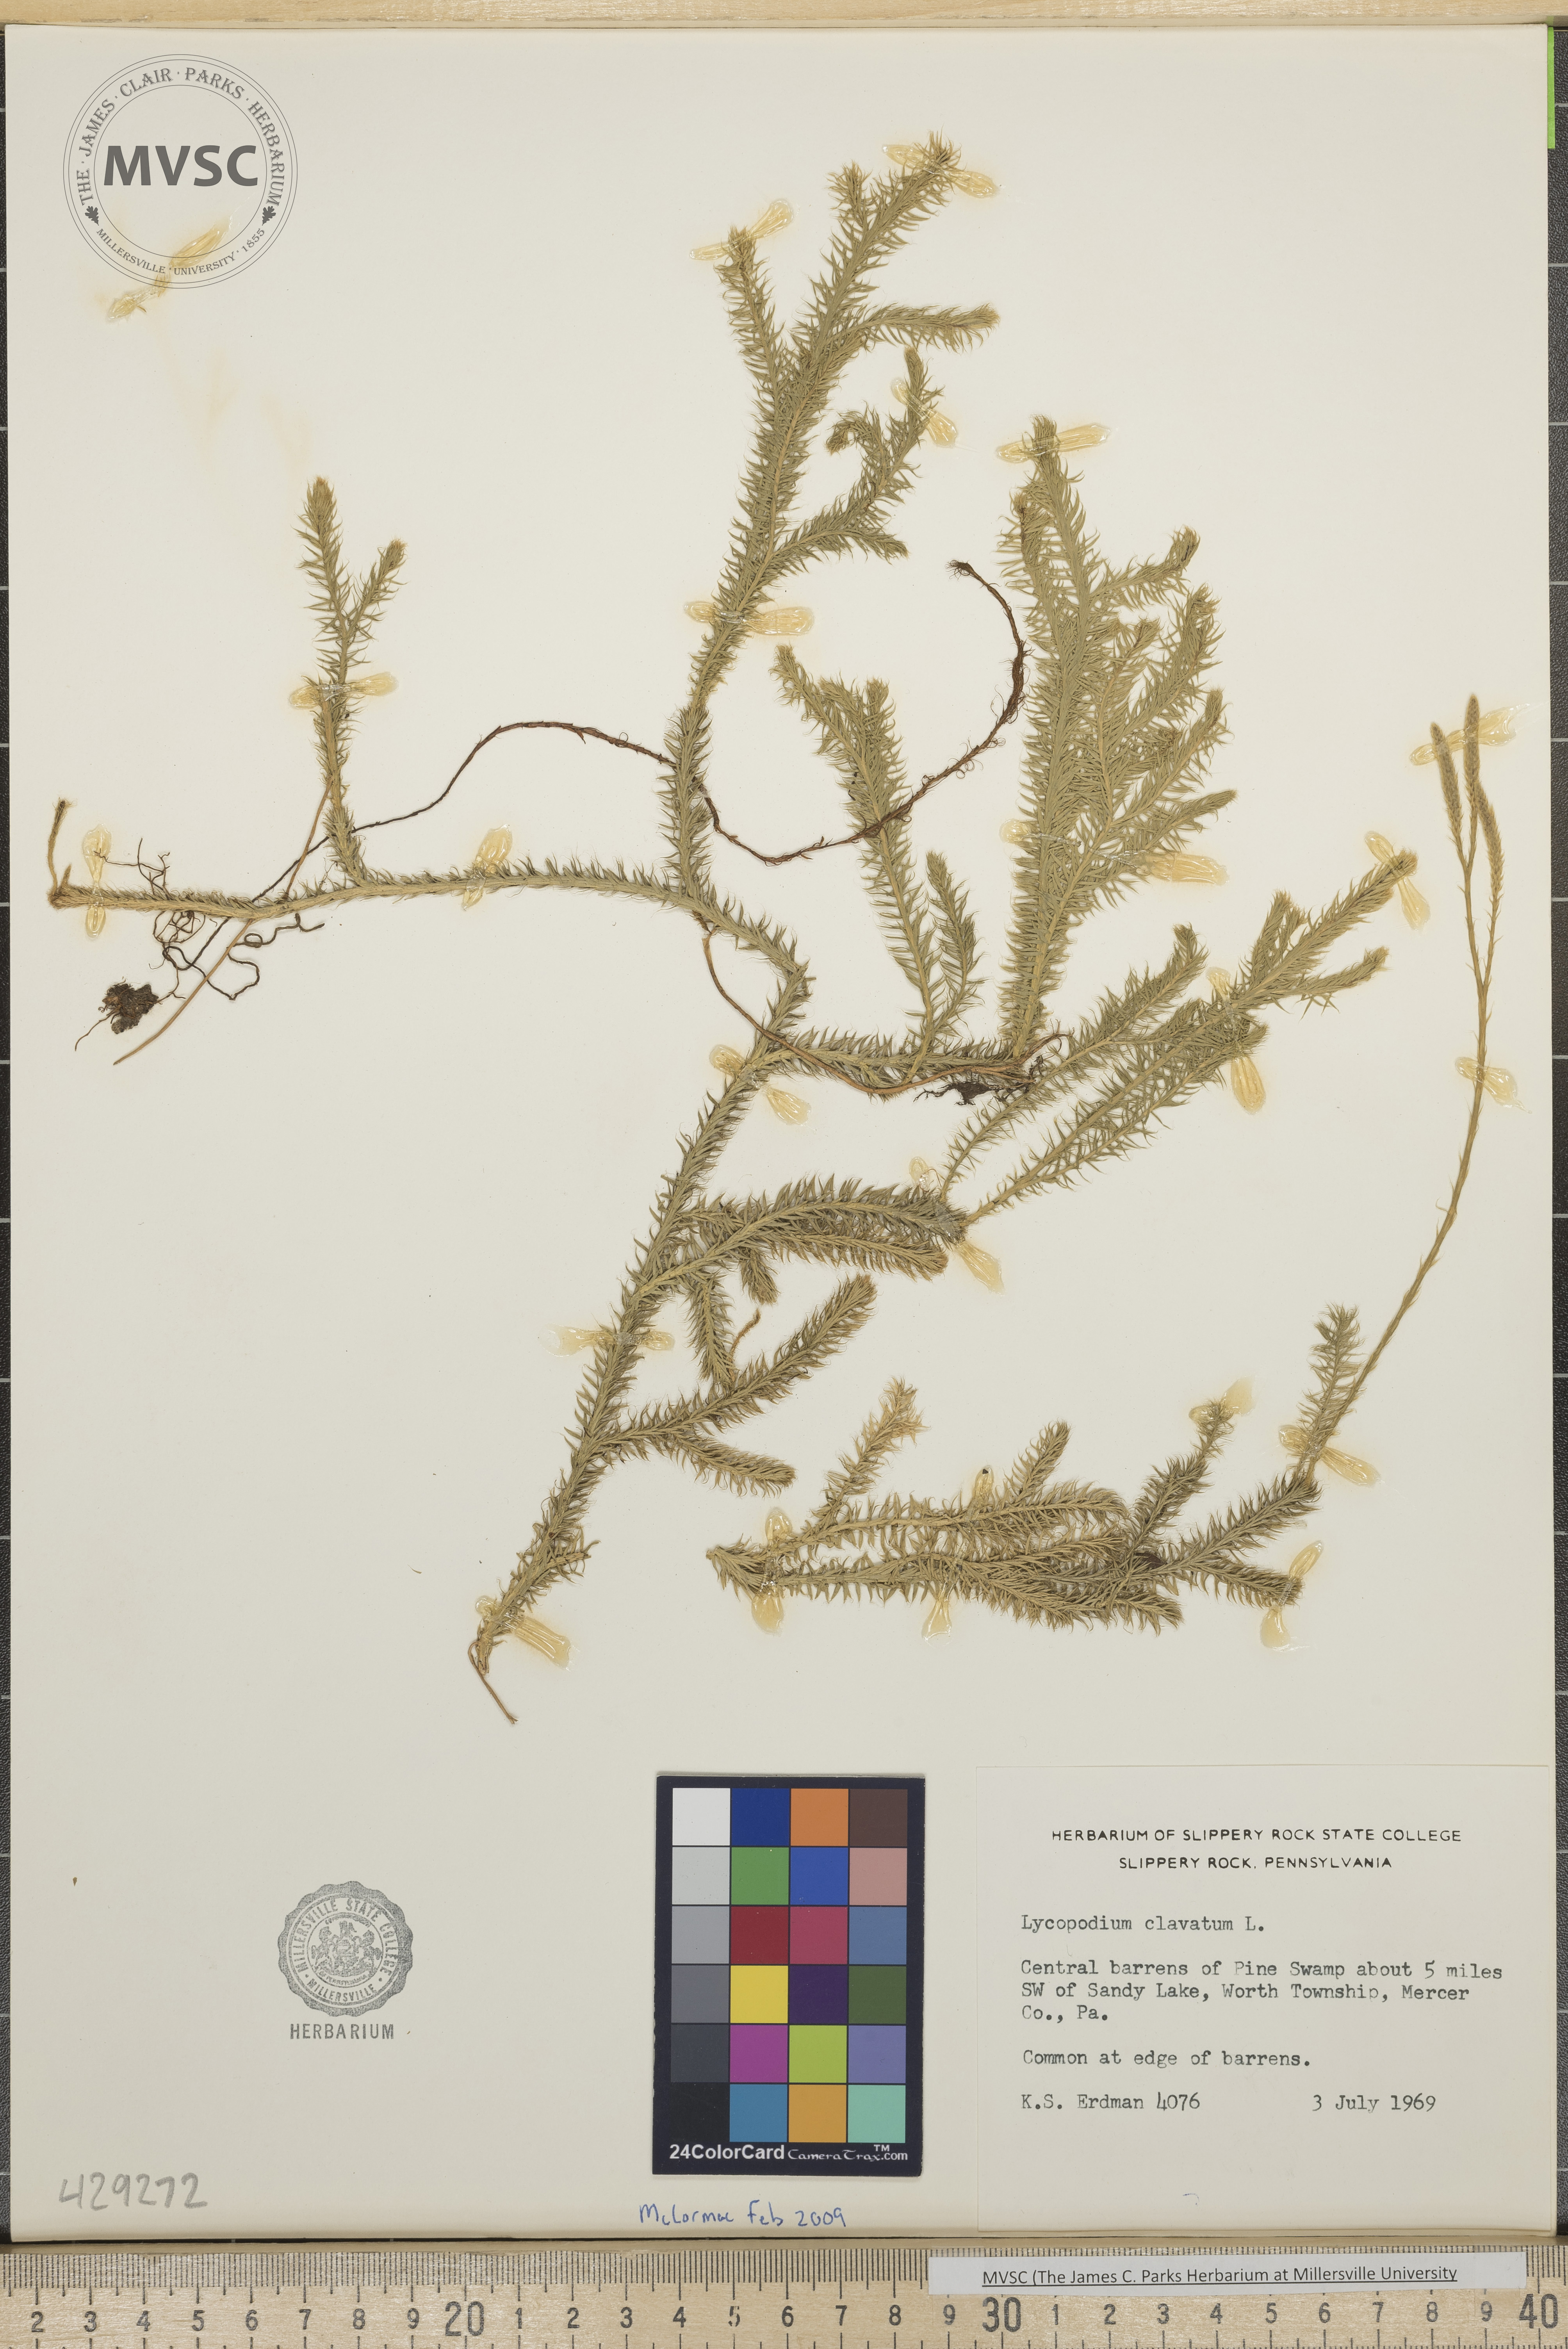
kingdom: Plantae
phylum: Tracheophyta
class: Lycopodiopsida
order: Lycopodiales
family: Lycopodiaceae
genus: Lycopodium
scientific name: Lycopodium clavatum
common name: Stag's-horn clubmoss
